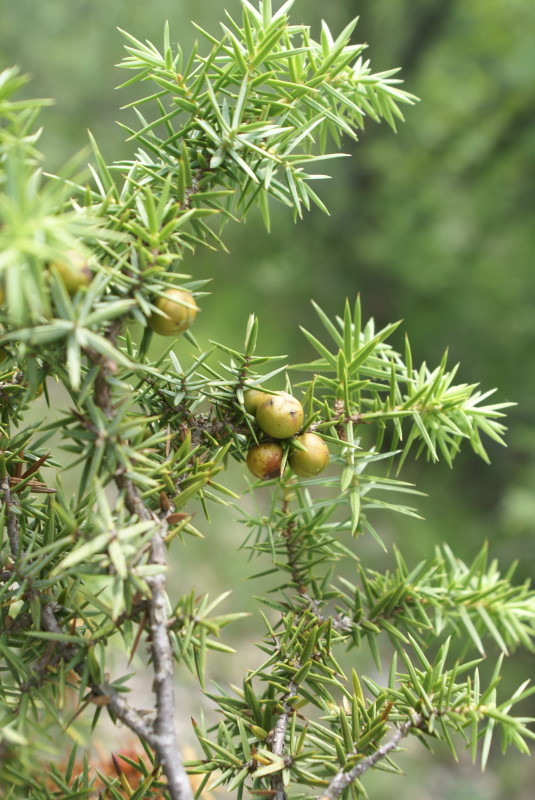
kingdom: Plantae
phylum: Tracheophyta
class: Pinopsida
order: Pinales
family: Cupressaceae
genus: Juniperus
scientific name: Juniperus communis
